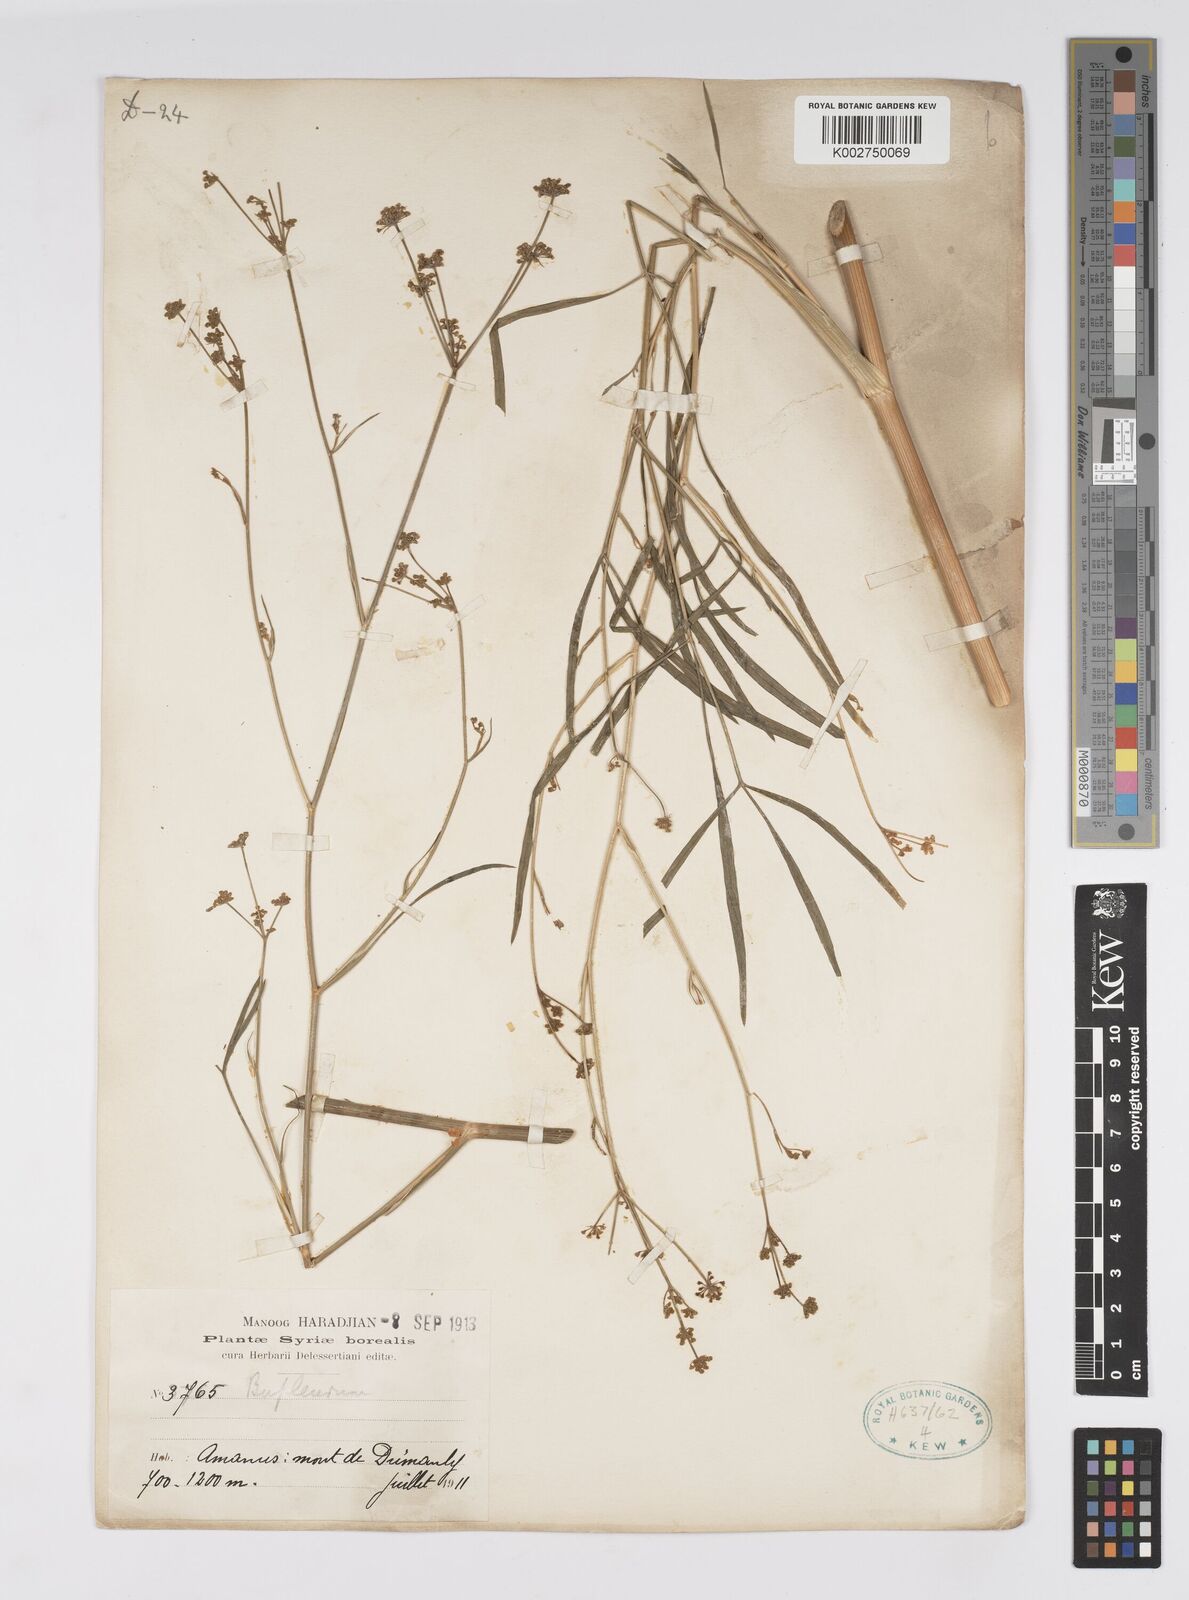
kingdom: Plantae
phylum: Tracheophyta
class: Magnoliopsida
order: Apiales
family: Apiaceae
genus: Bupleurum
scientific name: Bupleurum
